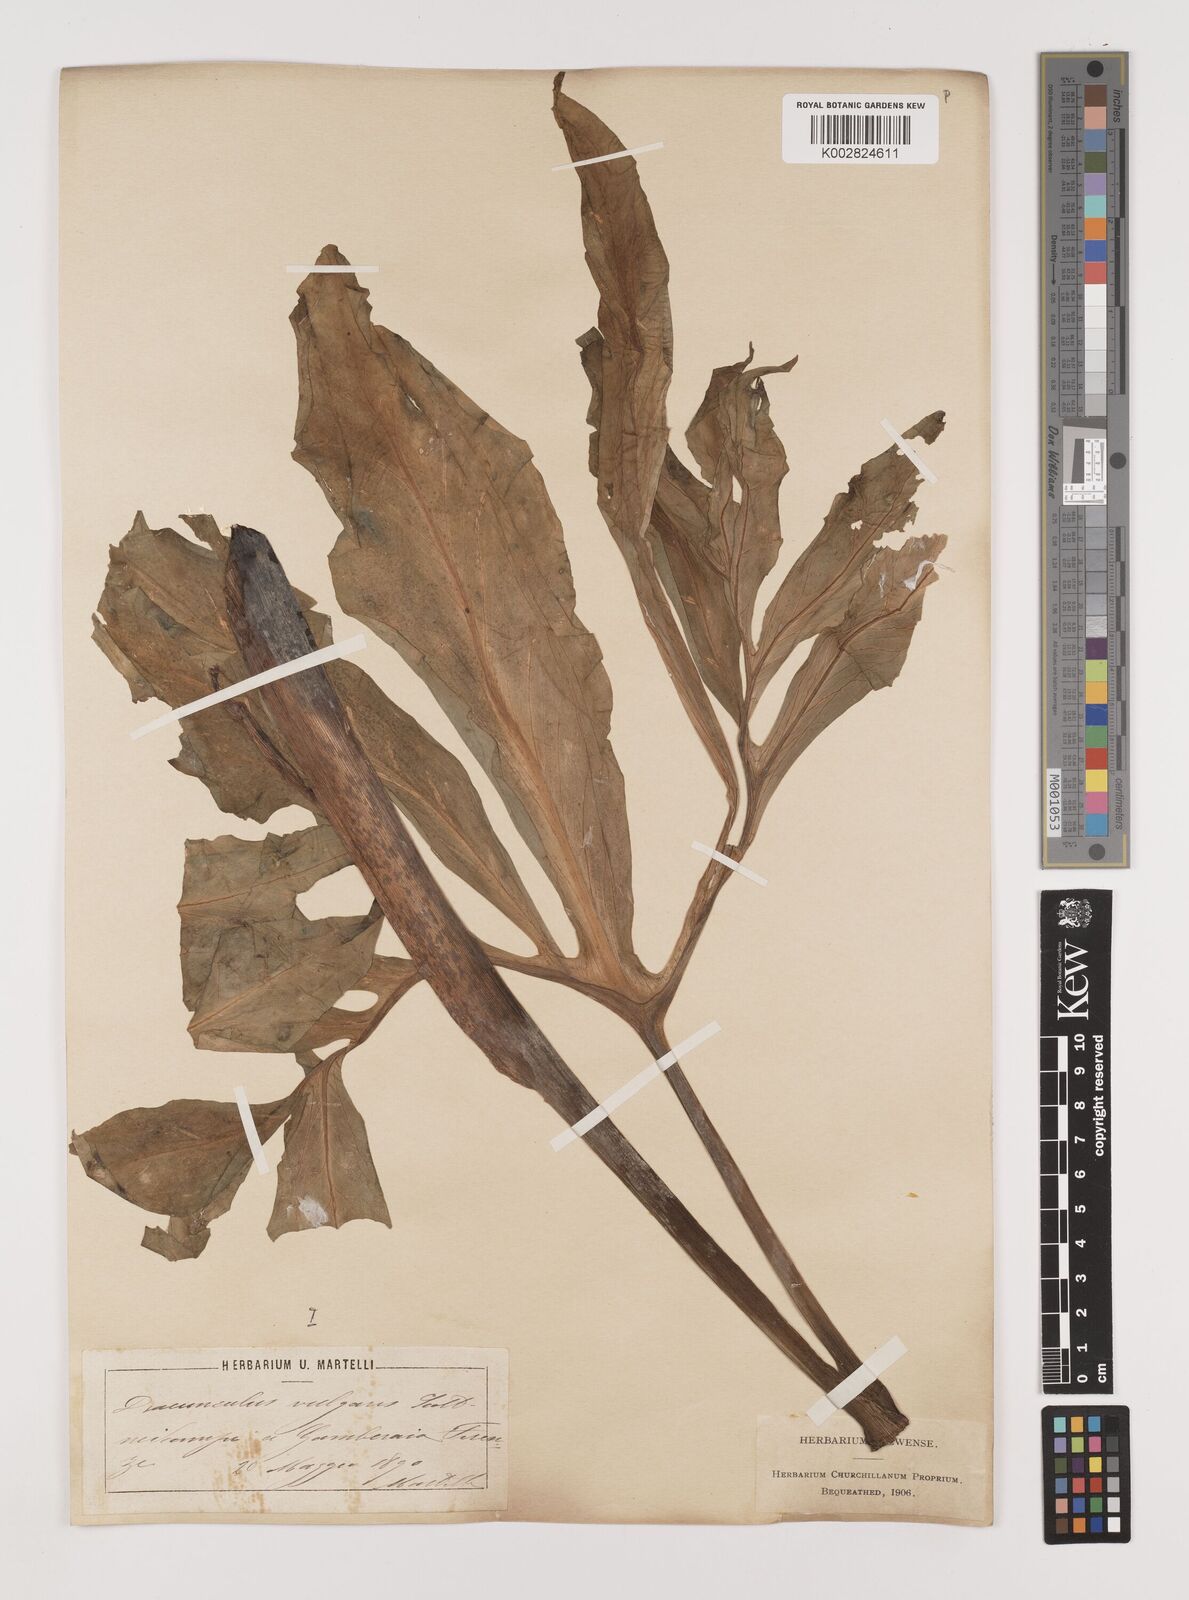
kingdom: Plantae
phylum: Tracheophyta
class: Liliopsida
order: Alismatales
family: Araceae
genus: Dracunculus
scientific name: Dracunculus vulgaris
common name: Dragon arum
